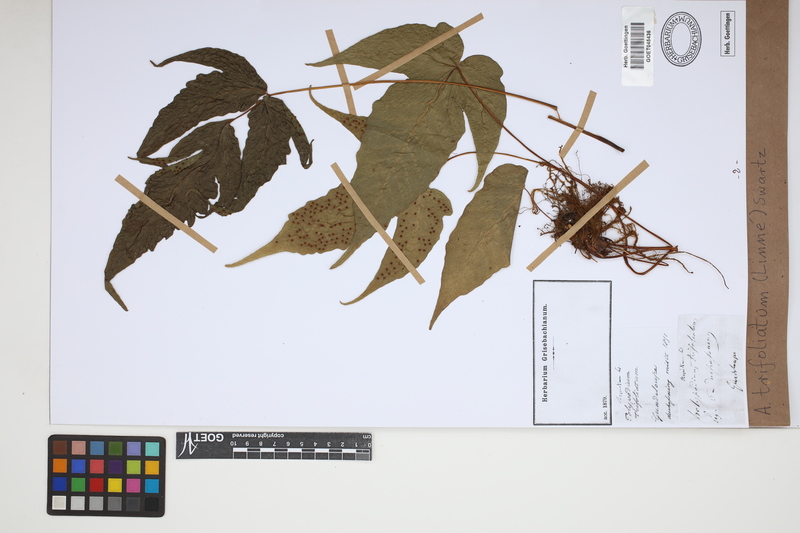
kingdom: Plantae
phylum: Tracheophyta
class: Polypodiopsida
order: Polypodiales
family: Tectariaceae
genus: Tectaria
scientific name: Tectaria trifoliata
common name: Threeleaf halberd fern
